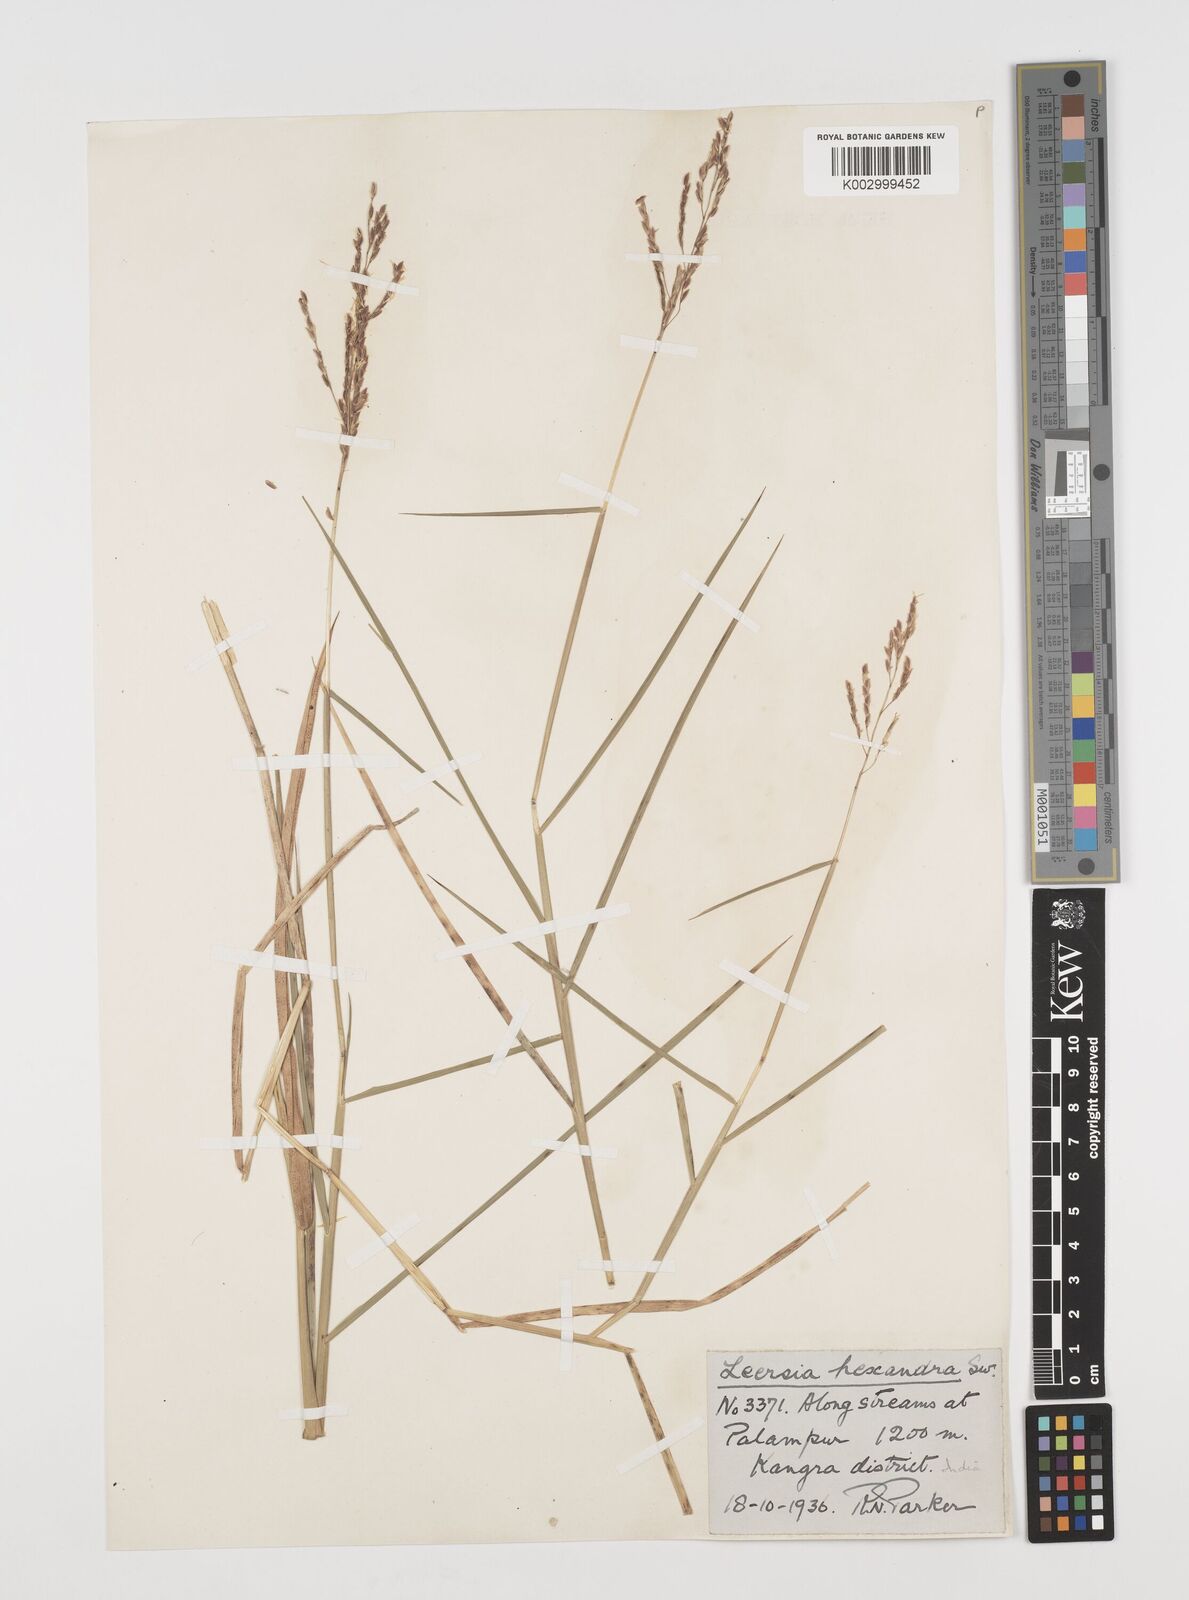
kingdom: Plantae
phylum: Tracheophyta
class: Liliopsida
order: Poales
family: Poaceae
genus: Leersia
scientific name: Leersia hexandra
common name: Southern cut grass
